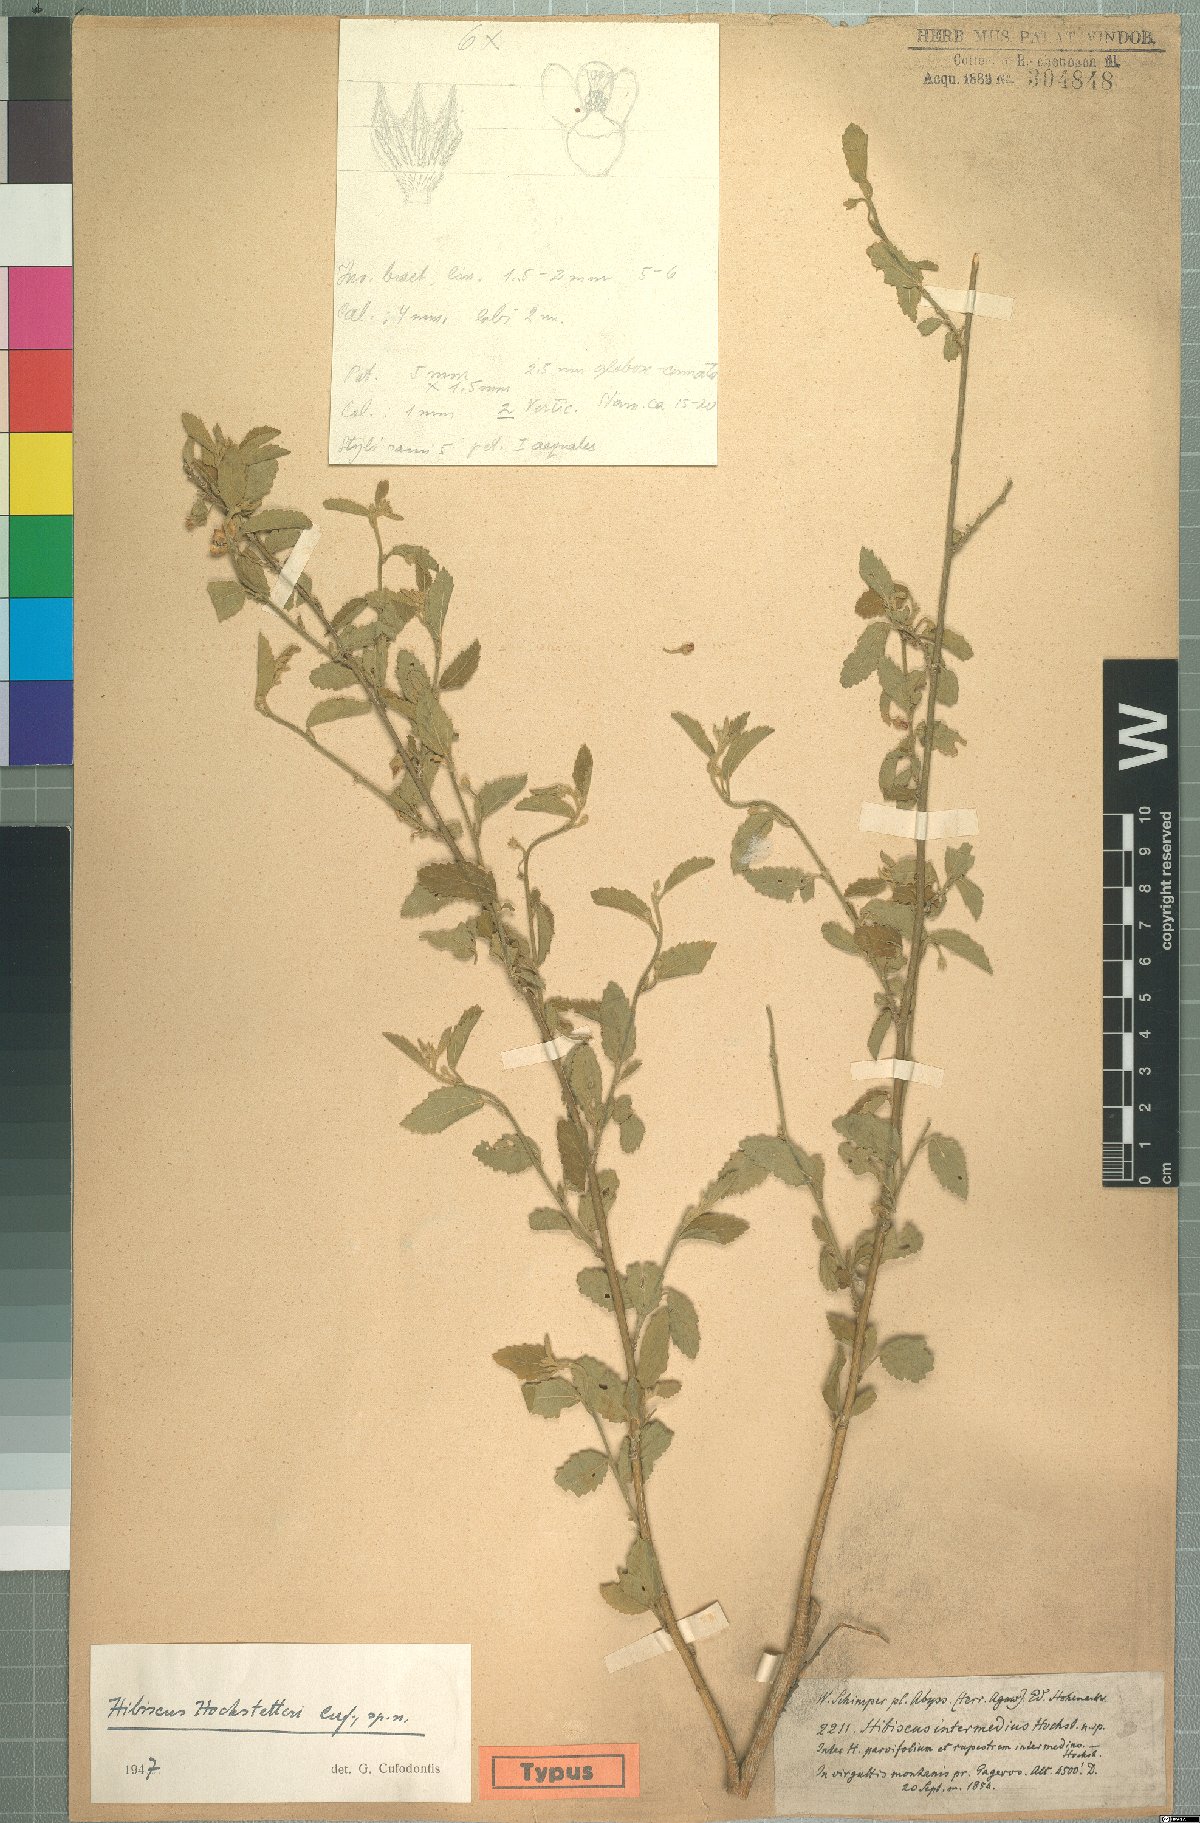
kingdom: Plantae
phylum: Tracheophyta
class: Magnoliopsida
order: Malvales
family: Malvaceae
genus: Hibiscus
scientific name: Hibiscus hochstetteri
